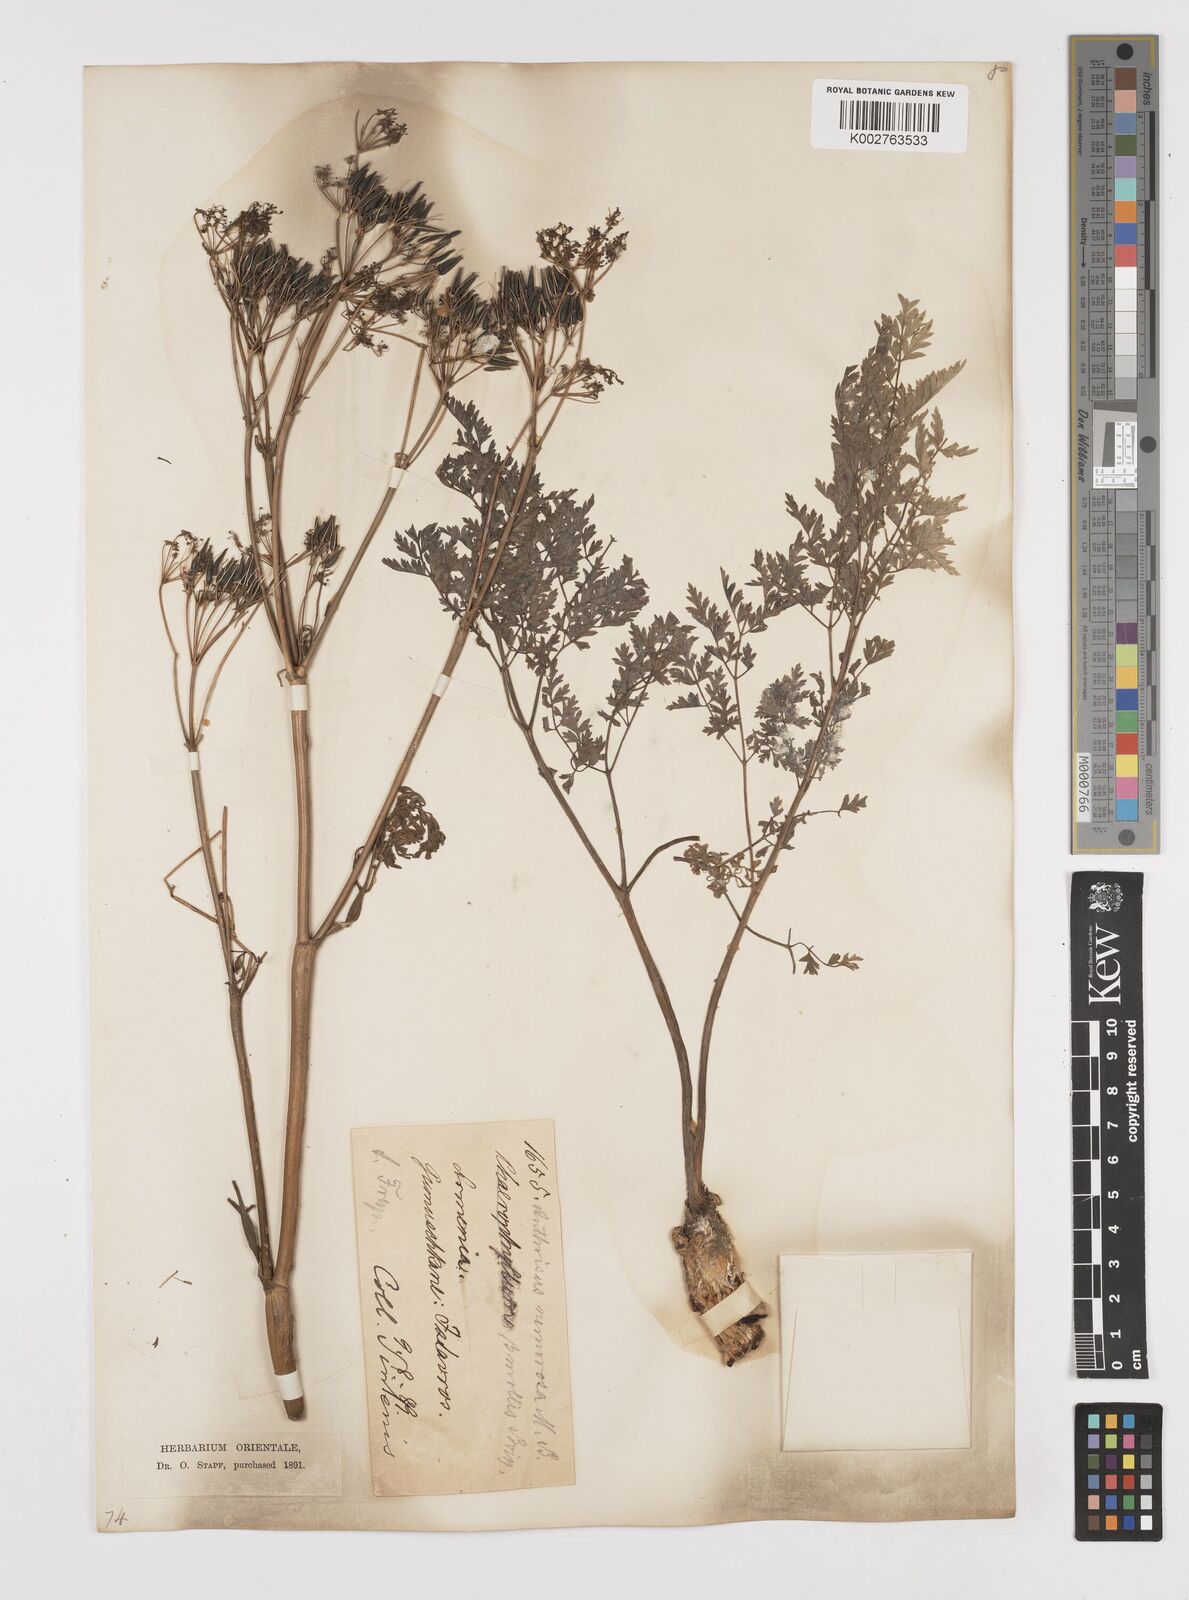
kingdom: Plantae
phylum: Tracheophyta
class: Magnoliopsida
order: Apiales
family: Apiaceae
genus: Anthriscus
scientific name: Anthriscus sylvestris
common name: Cow parsley
